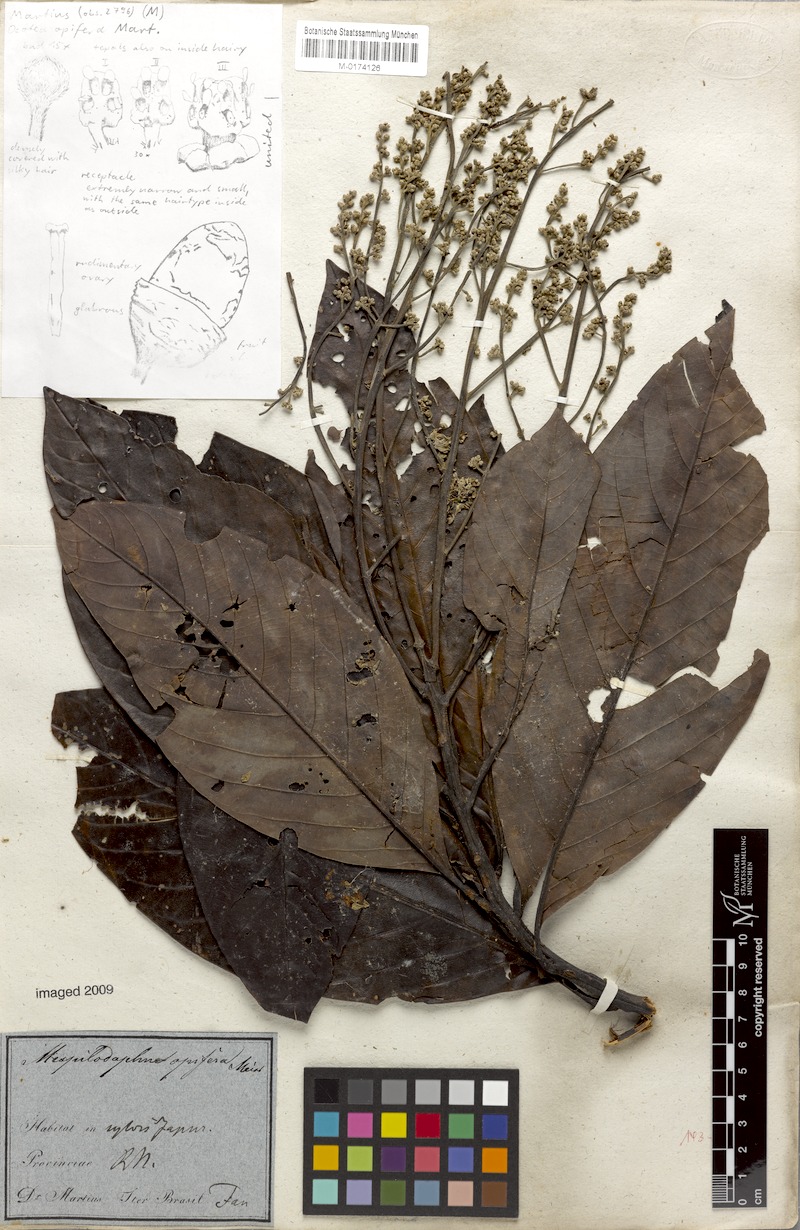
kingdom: Plantae
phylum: Tracheophyta
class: Magnoliopsida
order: Laurales
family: Lauraceae
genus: Mespilodaphne
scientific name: Mespilodaphne opifera
